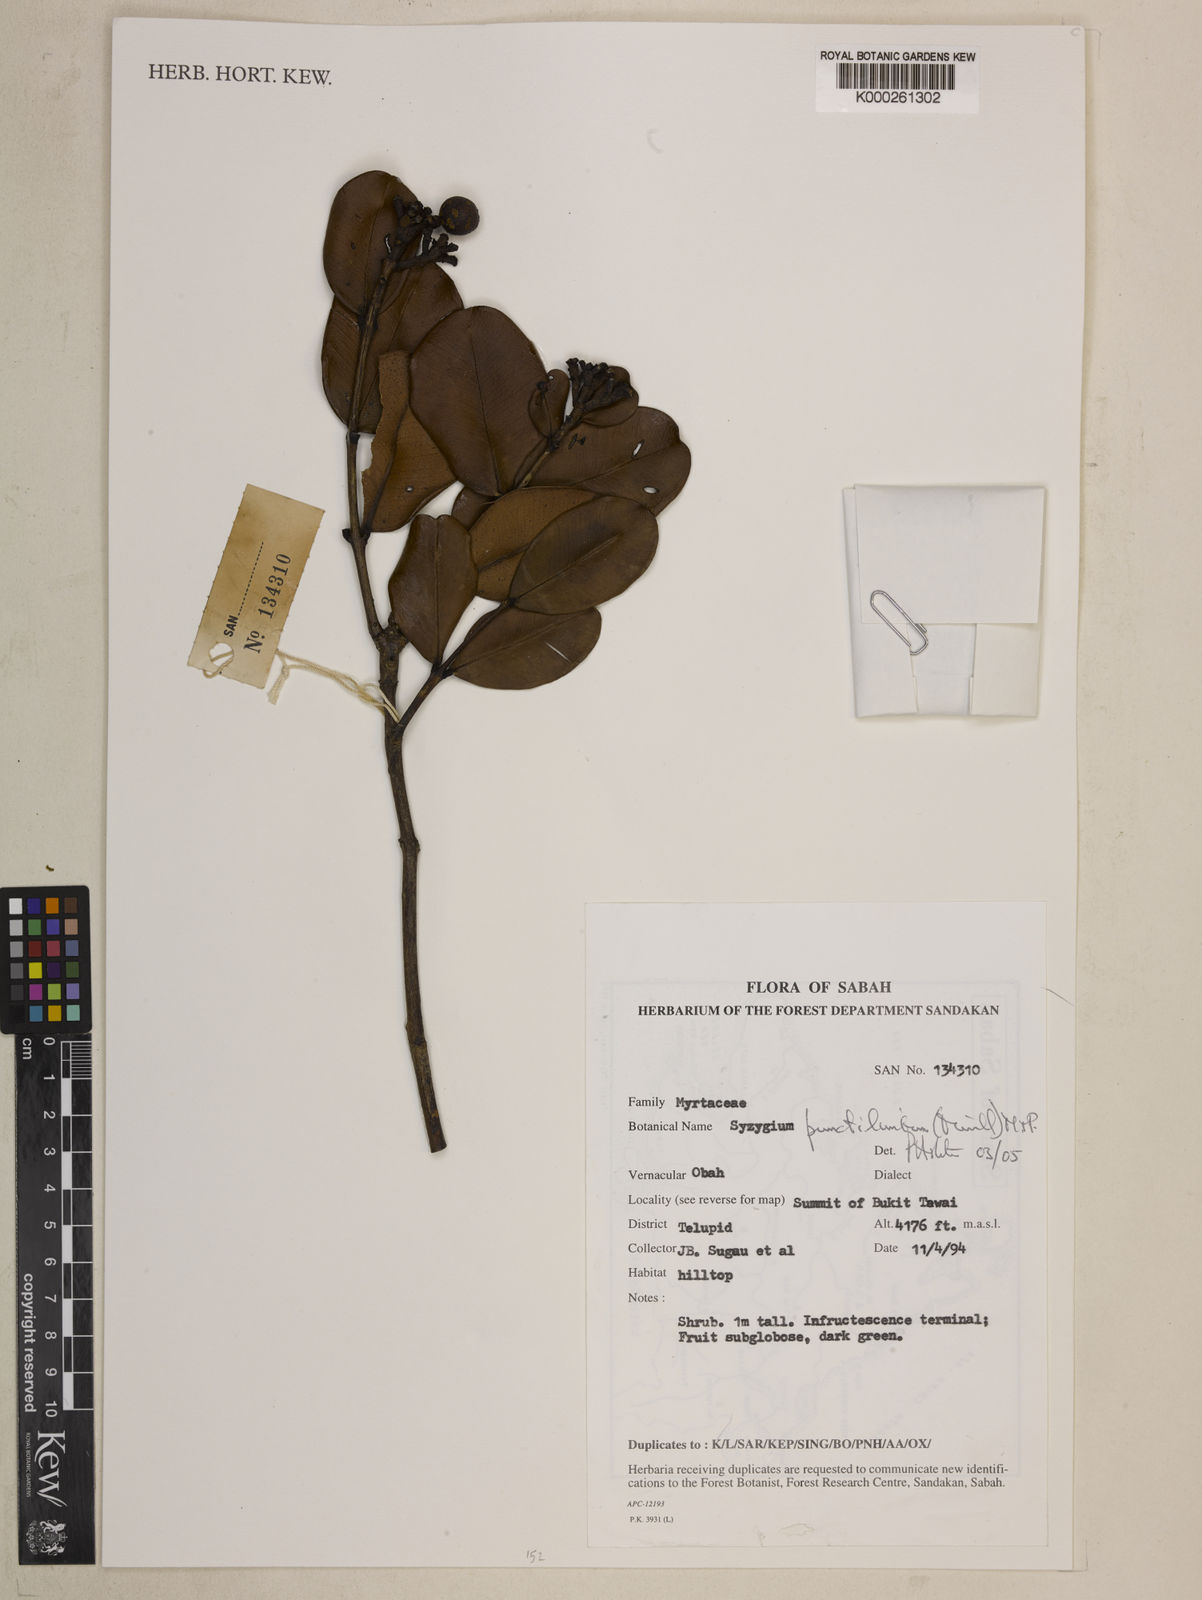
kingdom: Plantae
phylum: Tracheophyta
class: Magnoliopsida
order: Myrtales
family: Myrtaceae
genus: Syzygium
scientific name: Syzygium punctilimbum
